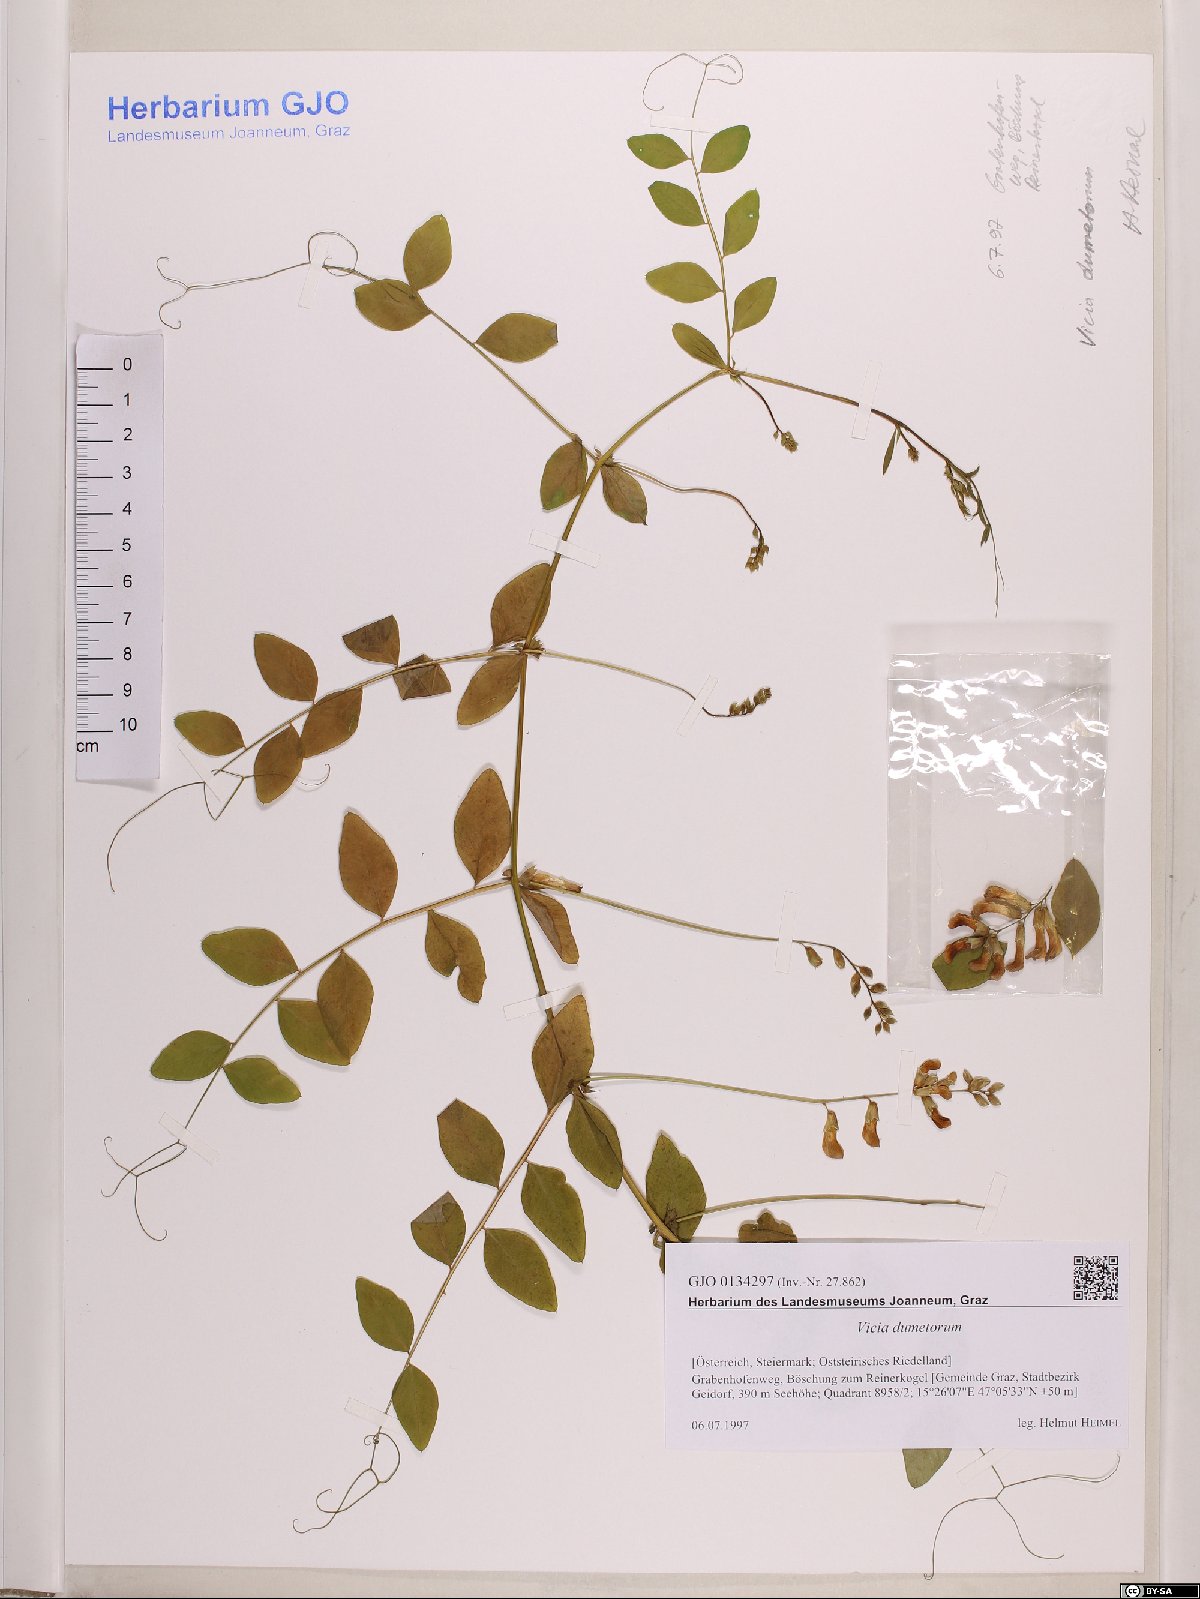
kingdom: Plantae
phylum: Tracheophyta
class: Magnoliopsida
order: Fabales
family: Fabaceae
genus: Vicia
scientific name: Vicia dumetorum
